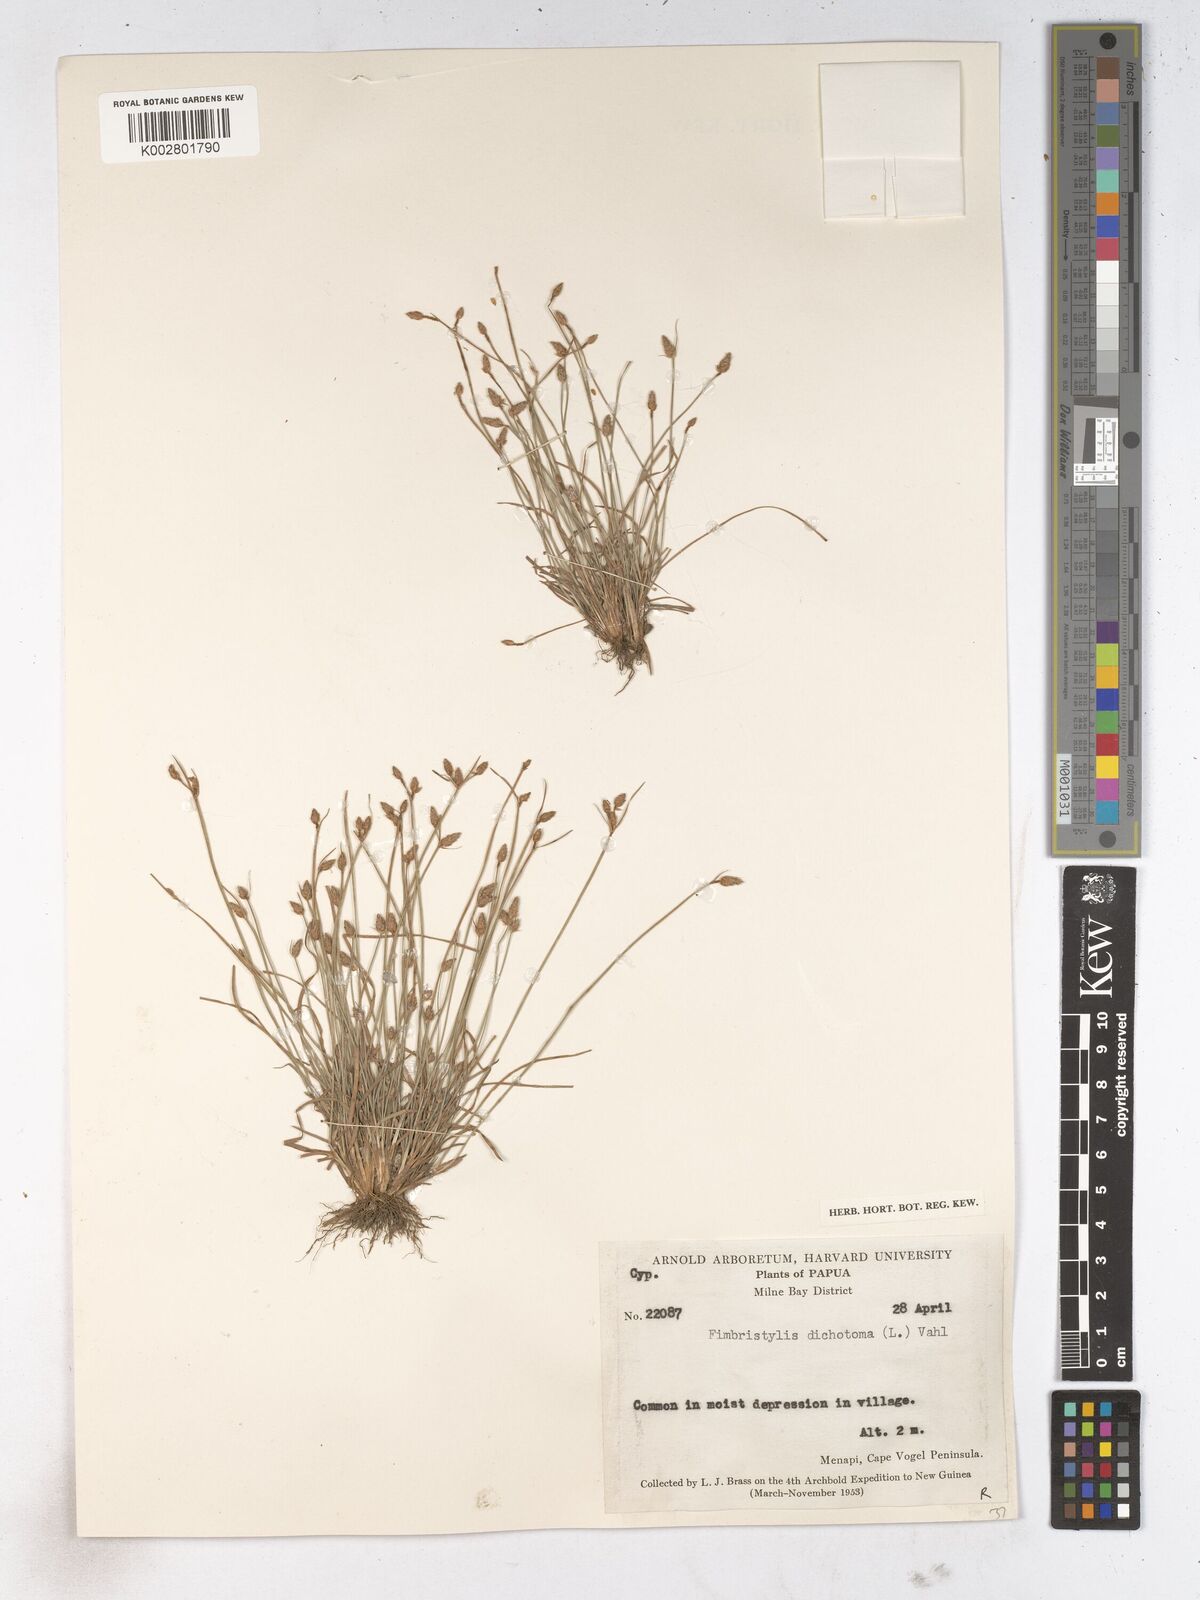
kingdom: Plantae
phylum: Tracheophyta
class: Liliopsida
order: Poales
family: Cyperaceae
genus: Fimbristylis
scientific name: Fimbristylis dichotoma
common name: Forked fimbry
